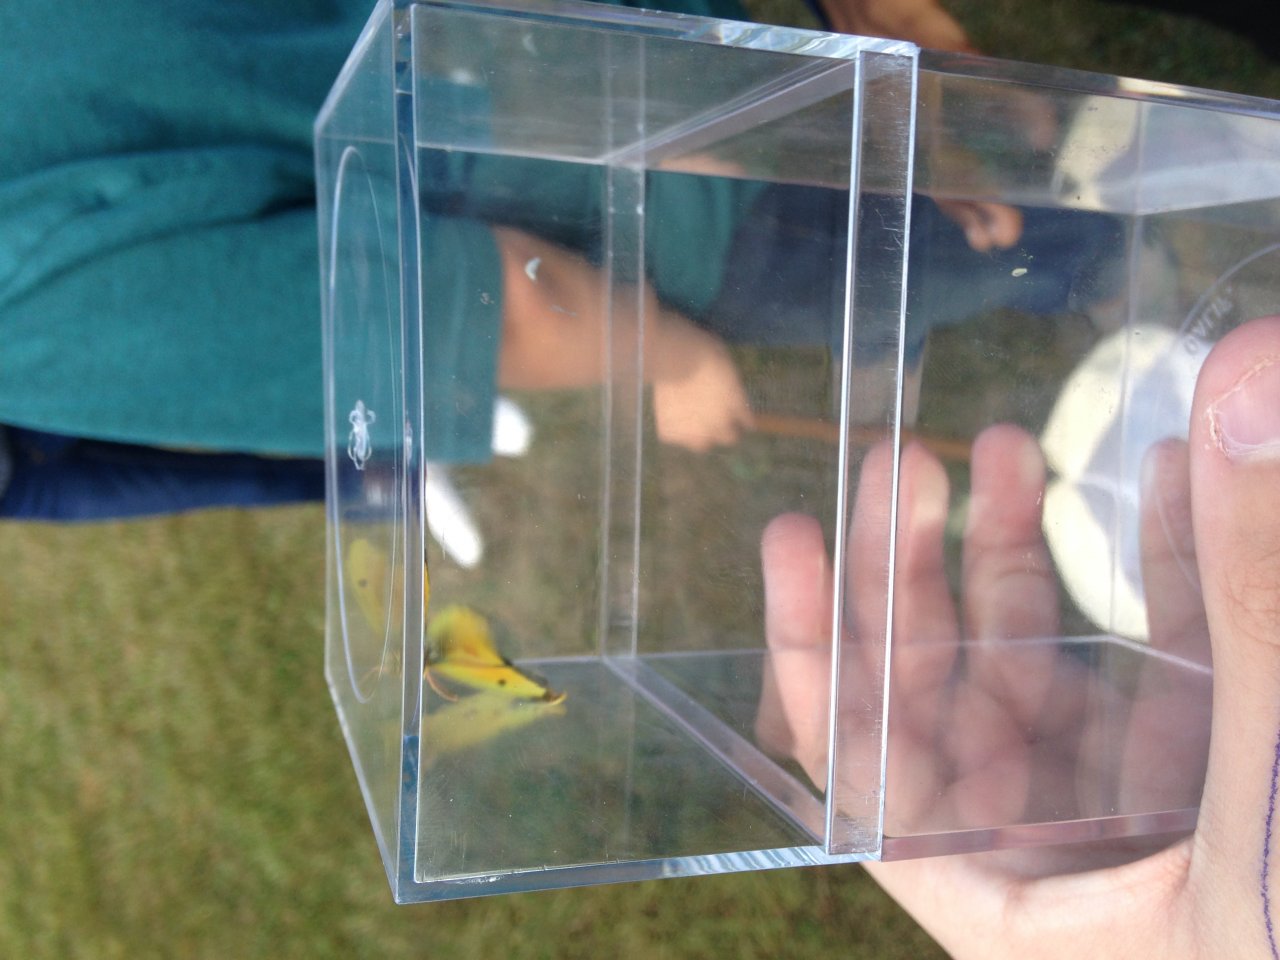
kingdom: Animalia
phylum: Arthropoda
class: Insecta
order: Lepidoptera
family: Pieridae
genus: Colias
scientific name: Colias eurytheme
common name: Orange Sulphur
